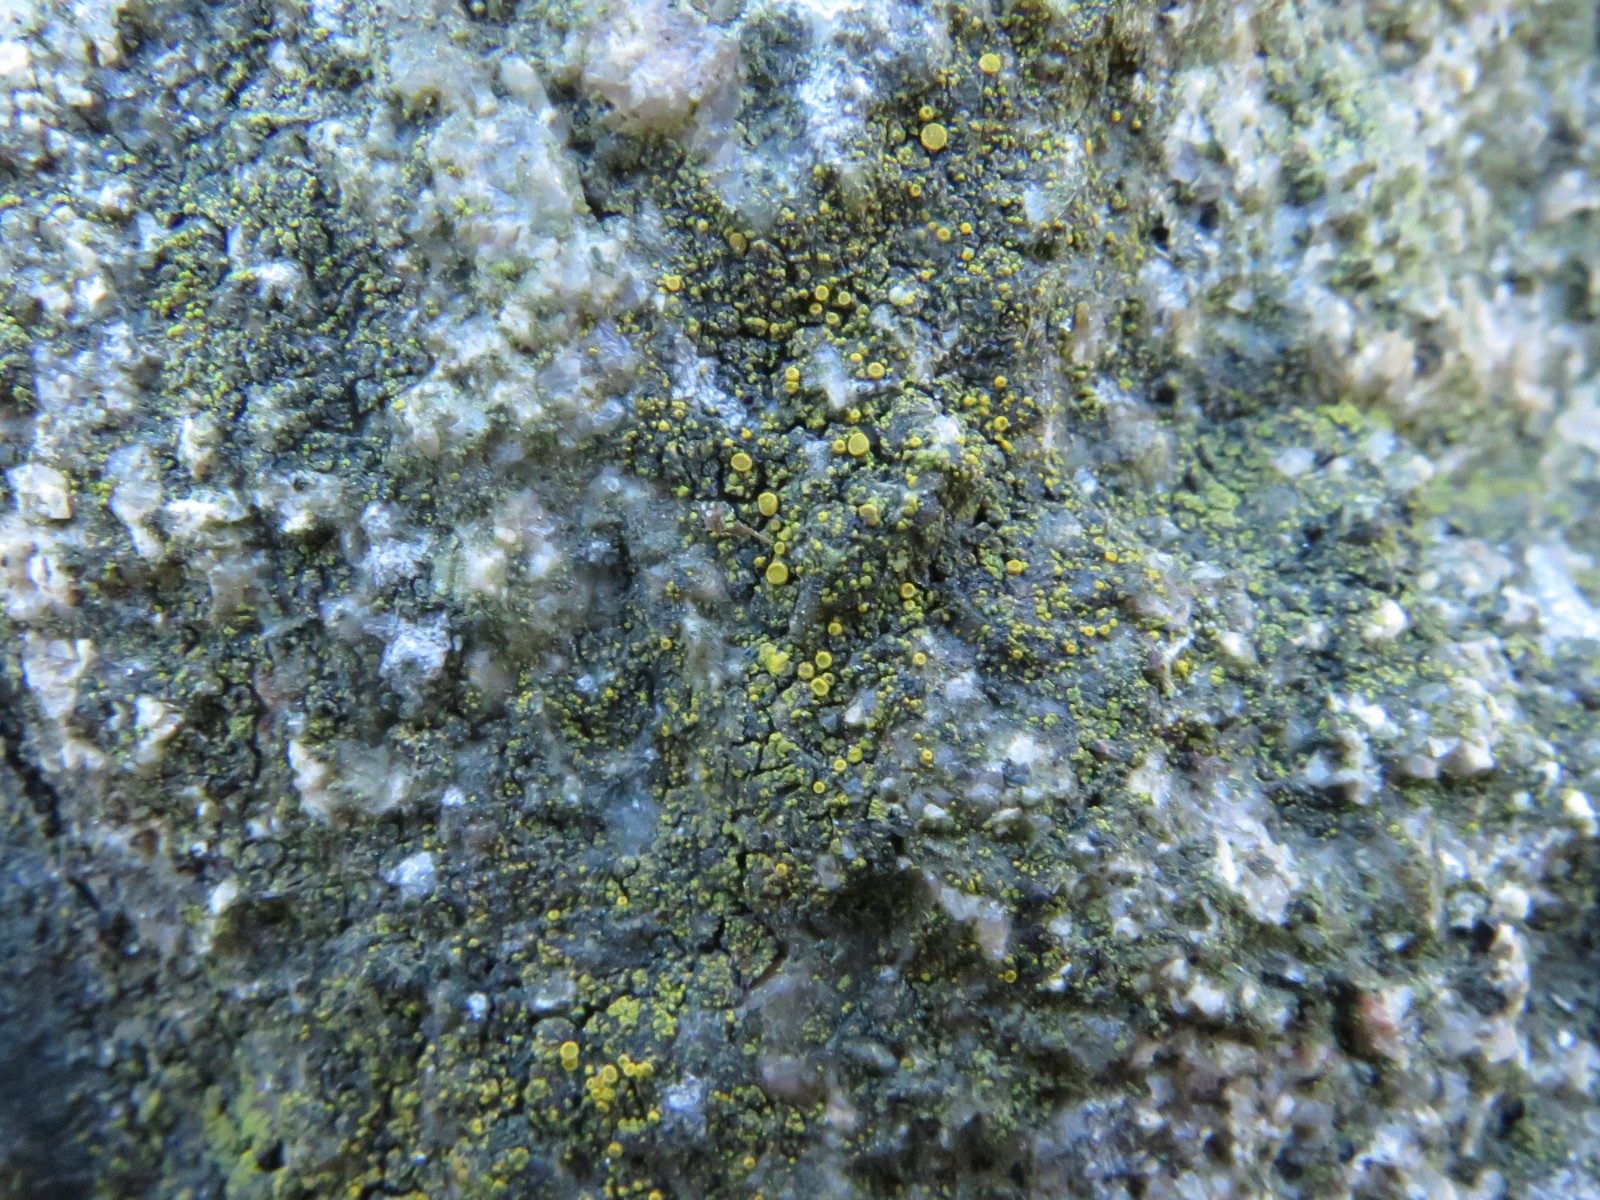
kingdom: Fungi
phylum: Ascomycota
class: Candelariomycetes
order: Candelariales
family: Candelariaceae
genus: Candelariella
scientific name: Candelariella aurella
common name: liden æggeblommelav
